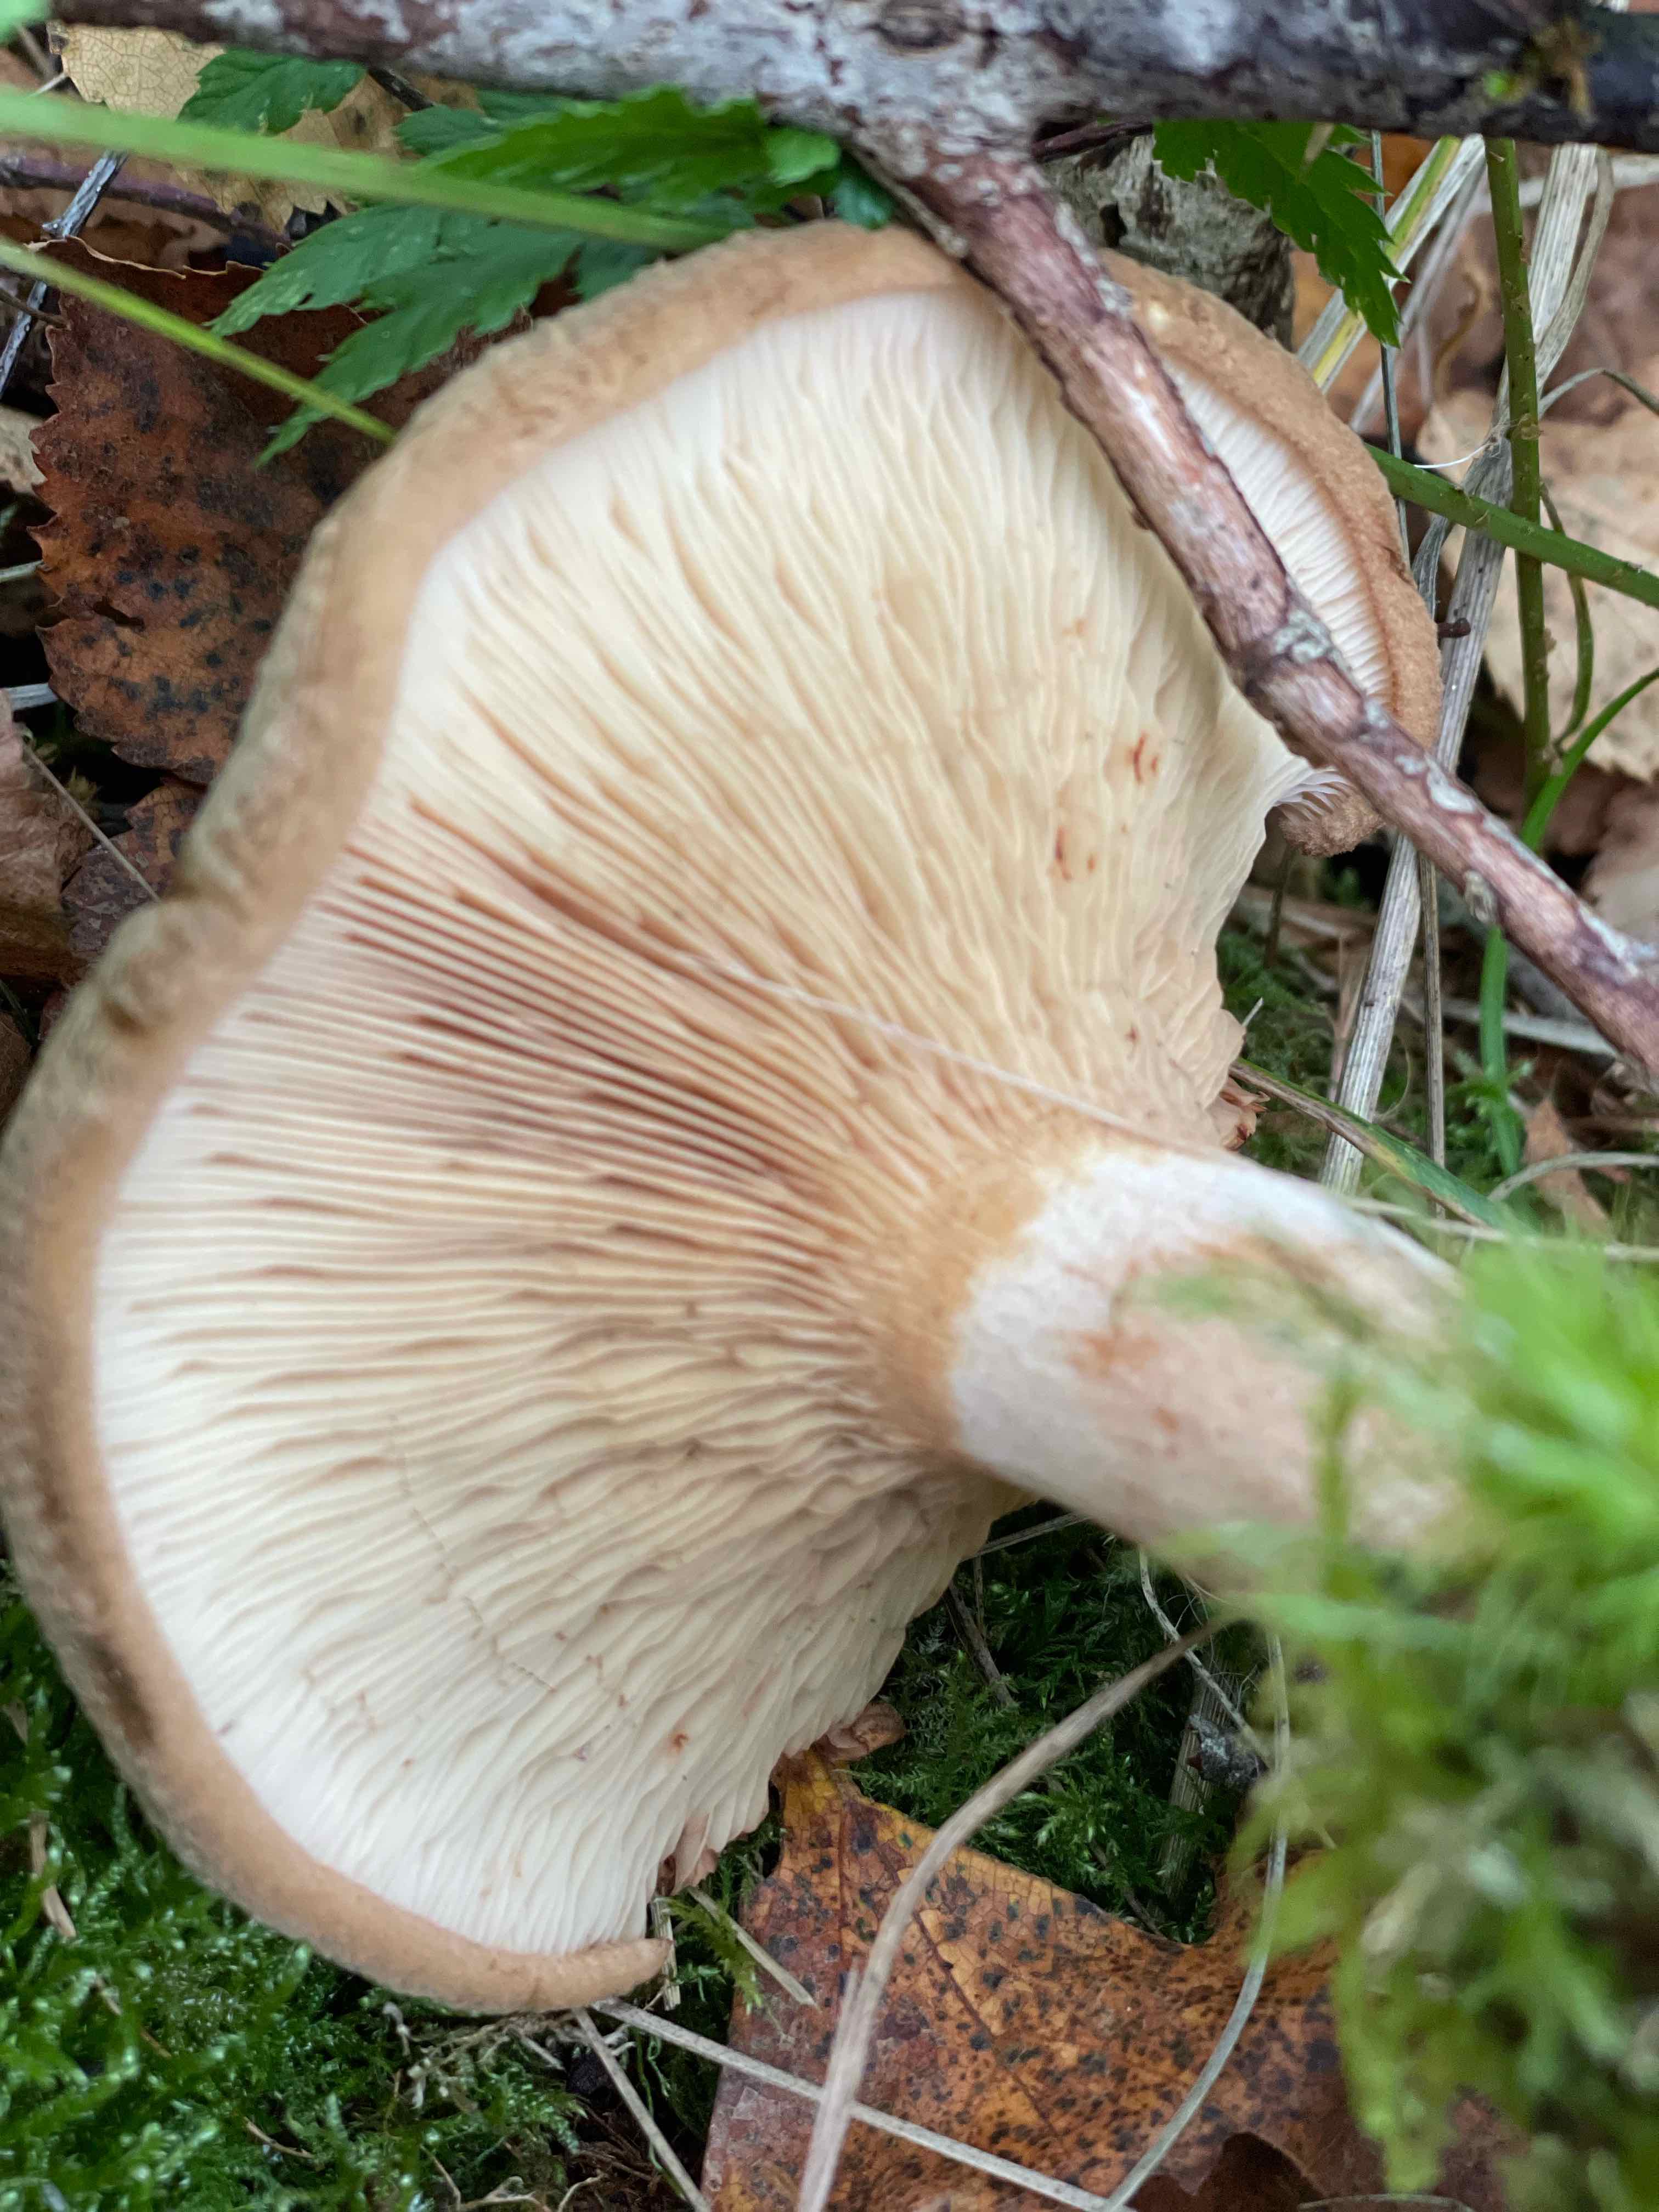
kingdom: Fungi
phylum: Basidiomycota
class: Agaricomycetes
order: Boletales
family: Paxillaceae
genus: Paxillus
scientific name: Paxillus involutus
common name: almindelig netbladhat
